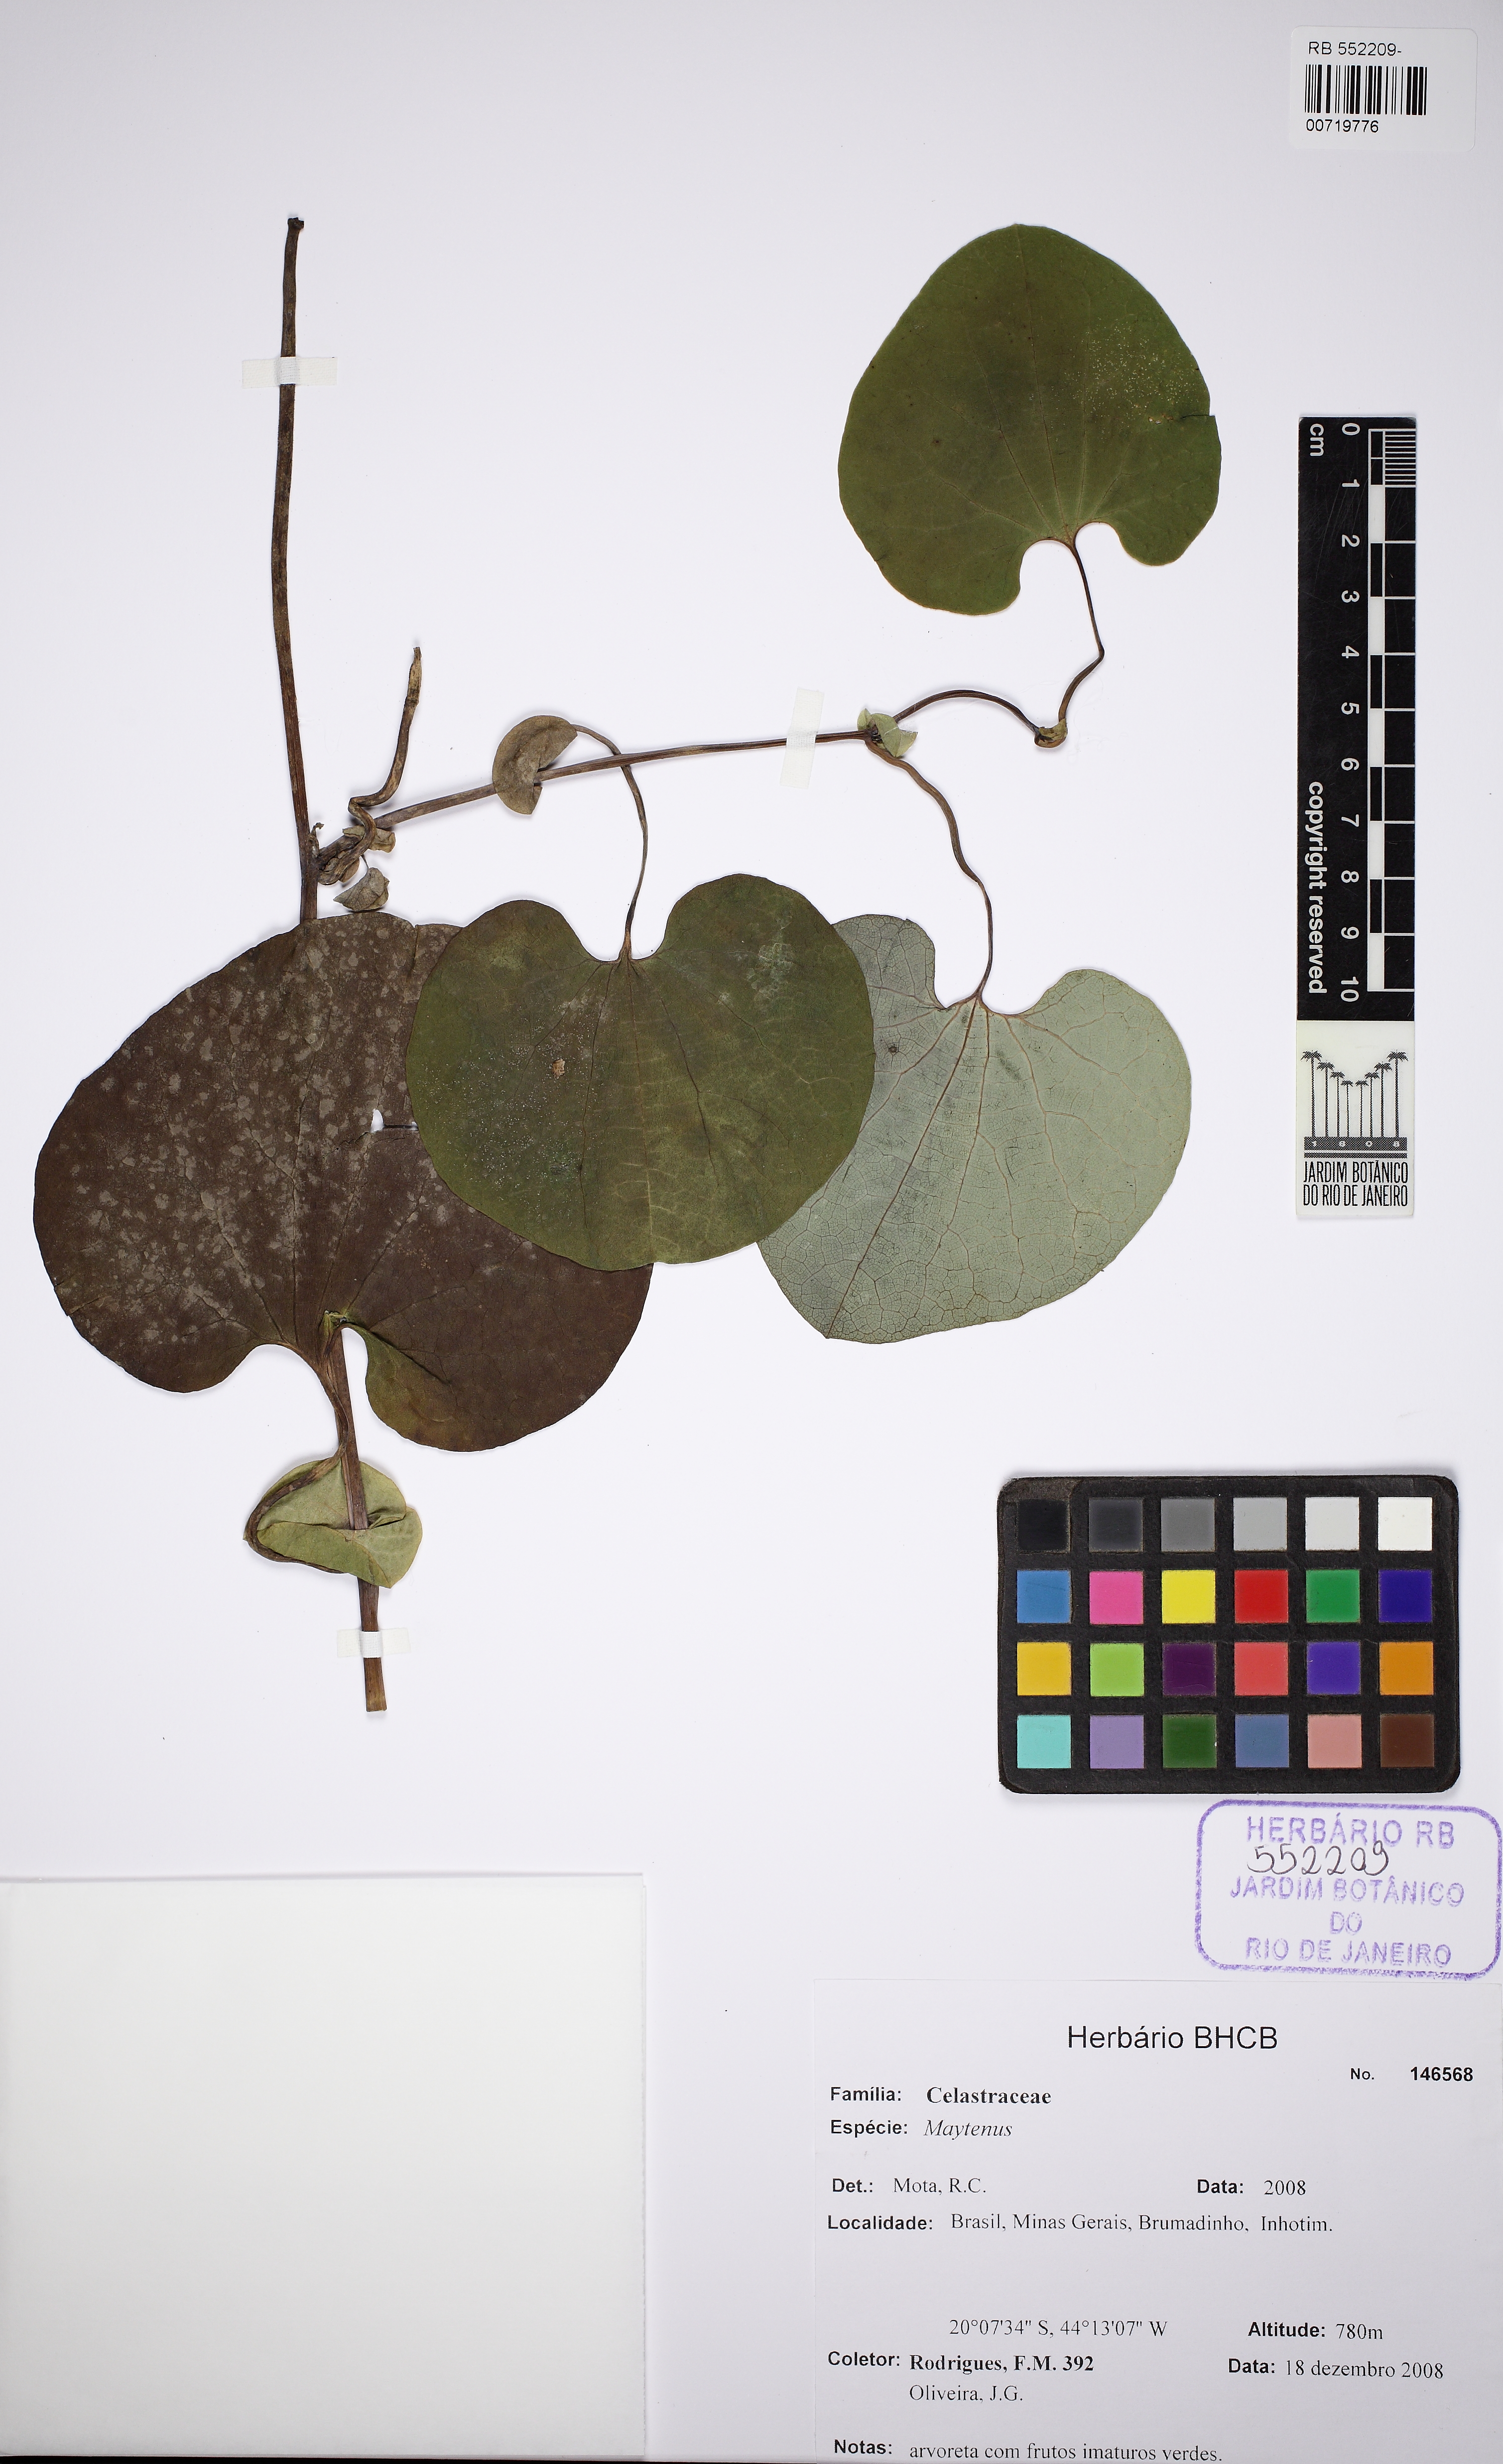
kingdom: Plantae
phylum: Tracheophyta
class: Magnoliopsida
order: Piperales
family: Aristolochiaceae
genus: Aristolochia
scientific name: Aristolochia
